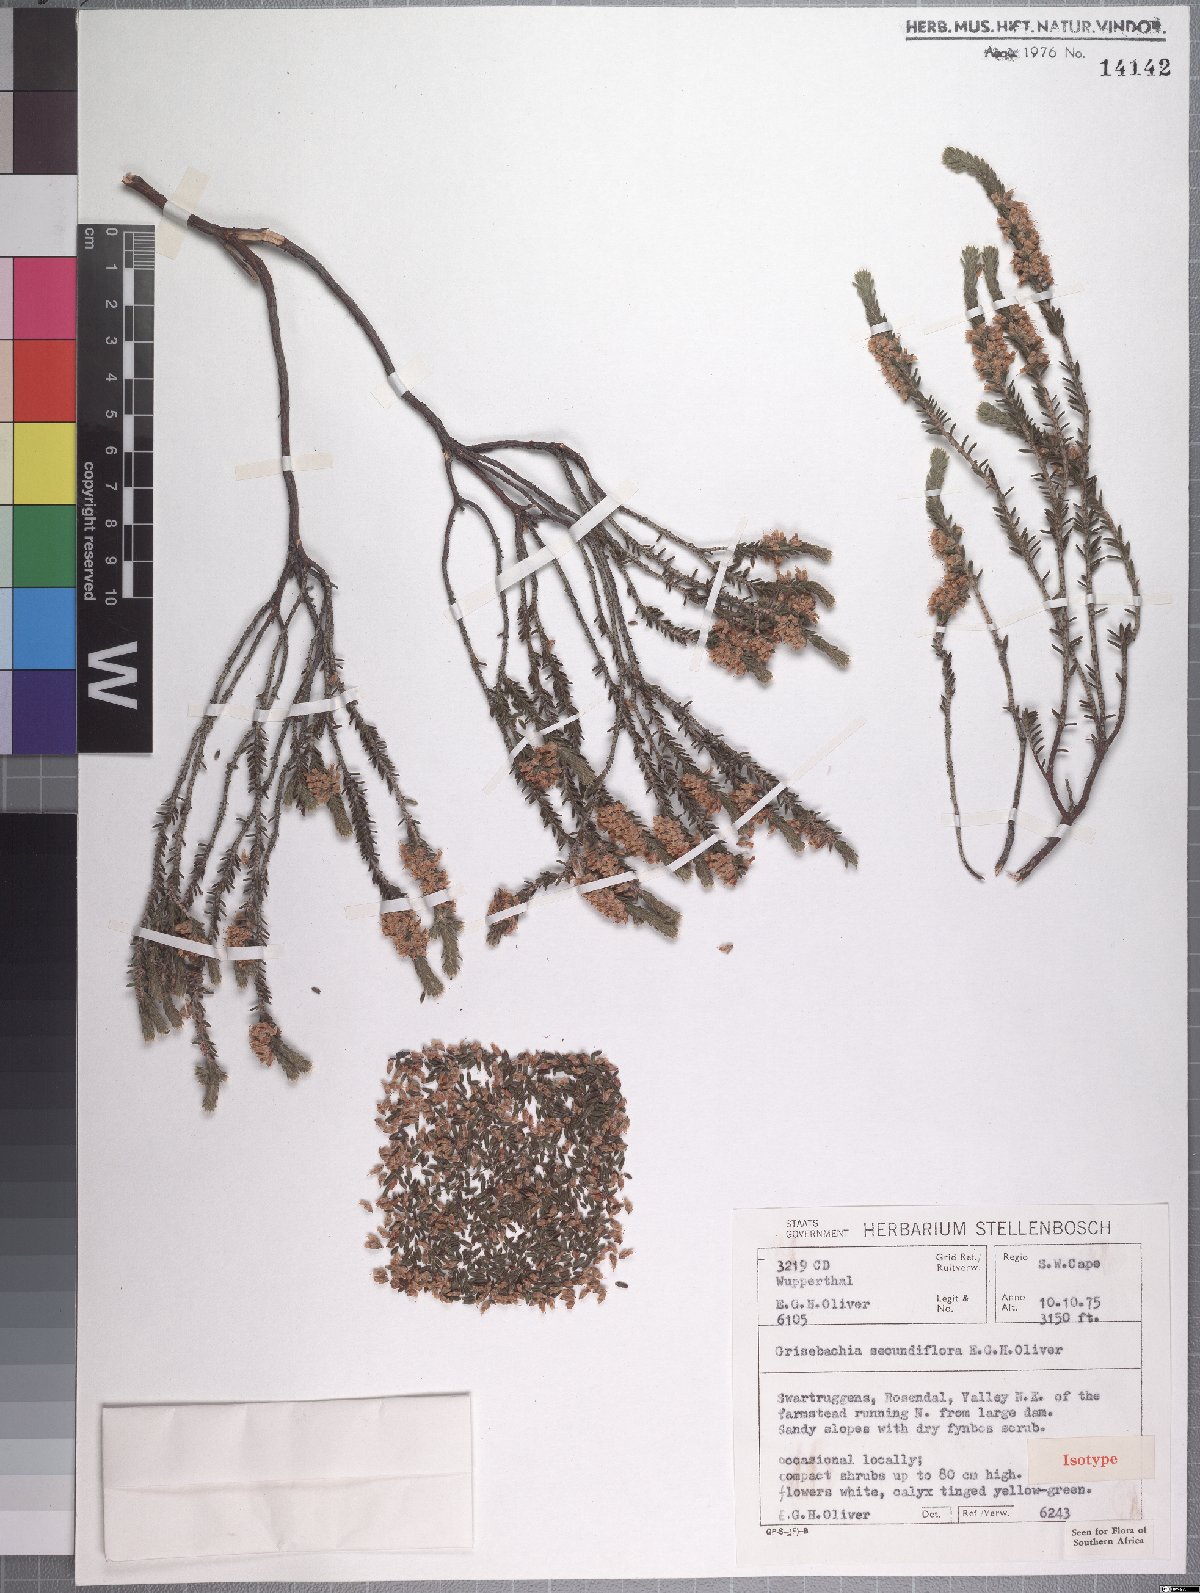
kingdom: Plantae
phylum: Tracheophyta
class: Magnoliopsida
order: Ericales
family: Ericaceae
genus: Erica
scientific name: Erica lateriflora
